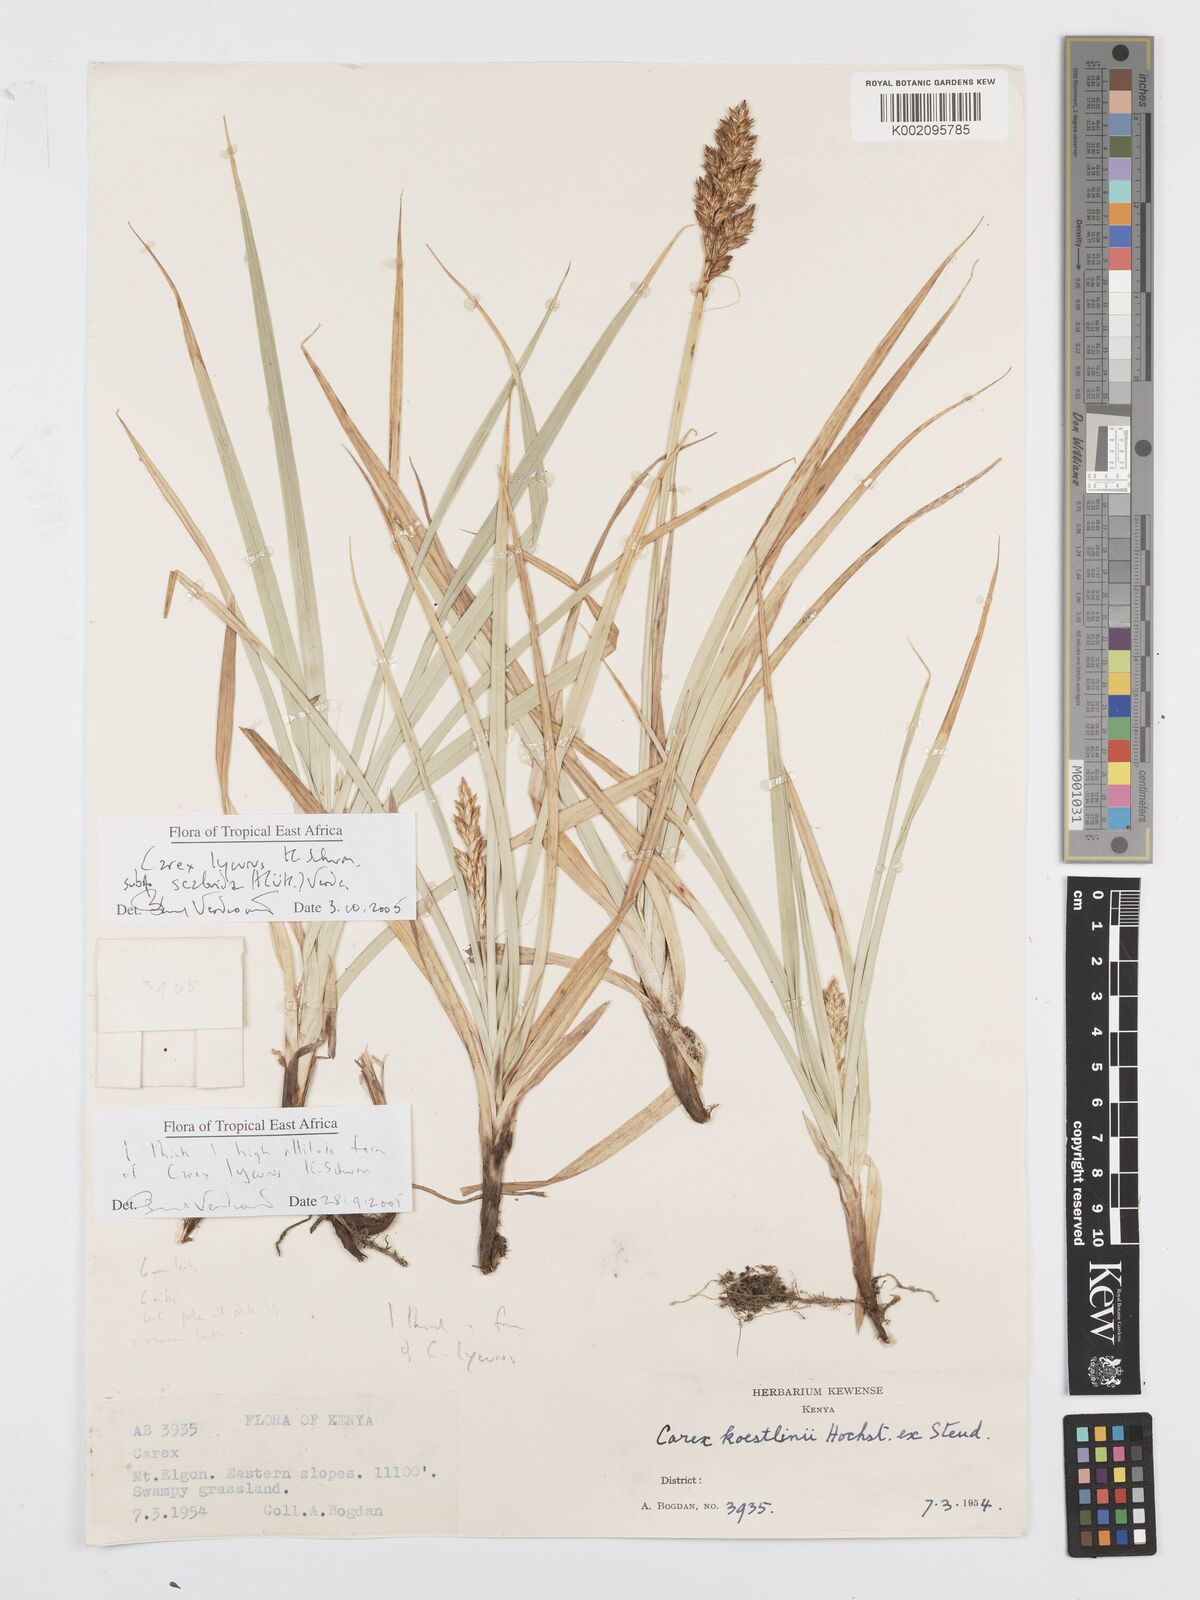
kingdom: Plantae
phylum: Tracheophyta
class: Liliopsida
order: Poales
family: Cyperaceae
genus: Carex
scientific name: Carex lycurus
